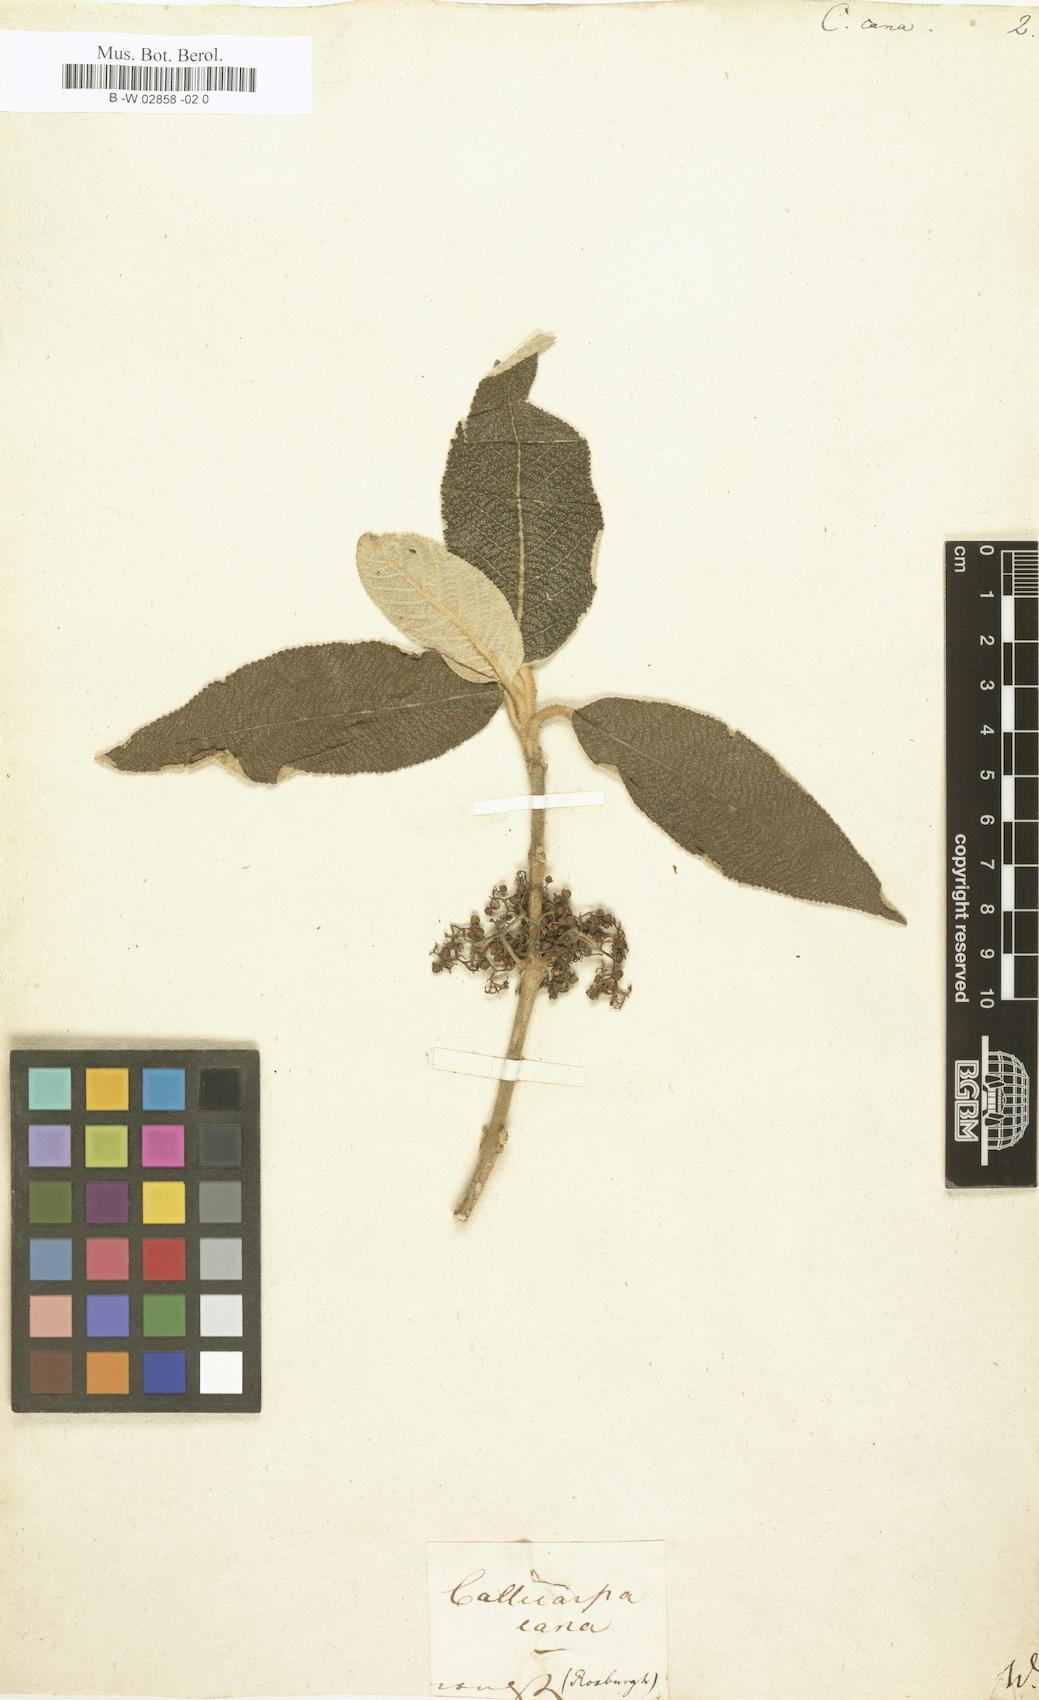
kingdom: Plantae
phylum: Tracheophyta
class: Magnoliopsida
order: Lamiales
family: Lamiaceae
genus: Callicarpa
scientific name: Callicarpa cana
